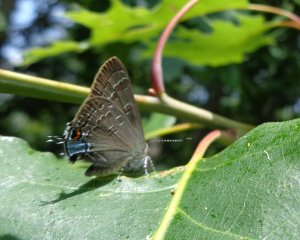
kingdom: Animalia
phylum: Arthropoda
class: Insecta
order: Lepidoptera
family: Lycaenidae
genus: Strymon
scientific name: Strymon caryaevorus
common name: Hickory Hairstreak
